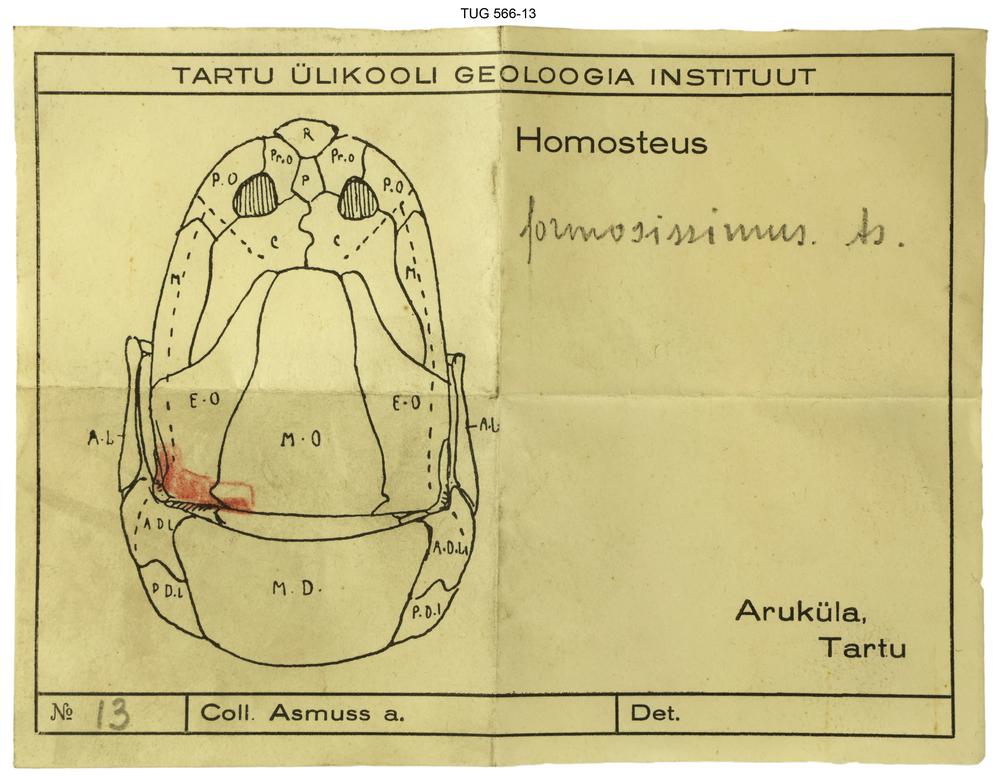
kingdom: Animalia
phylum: Chordata
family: Homostiidae
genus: Homostius
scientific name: Homostius
